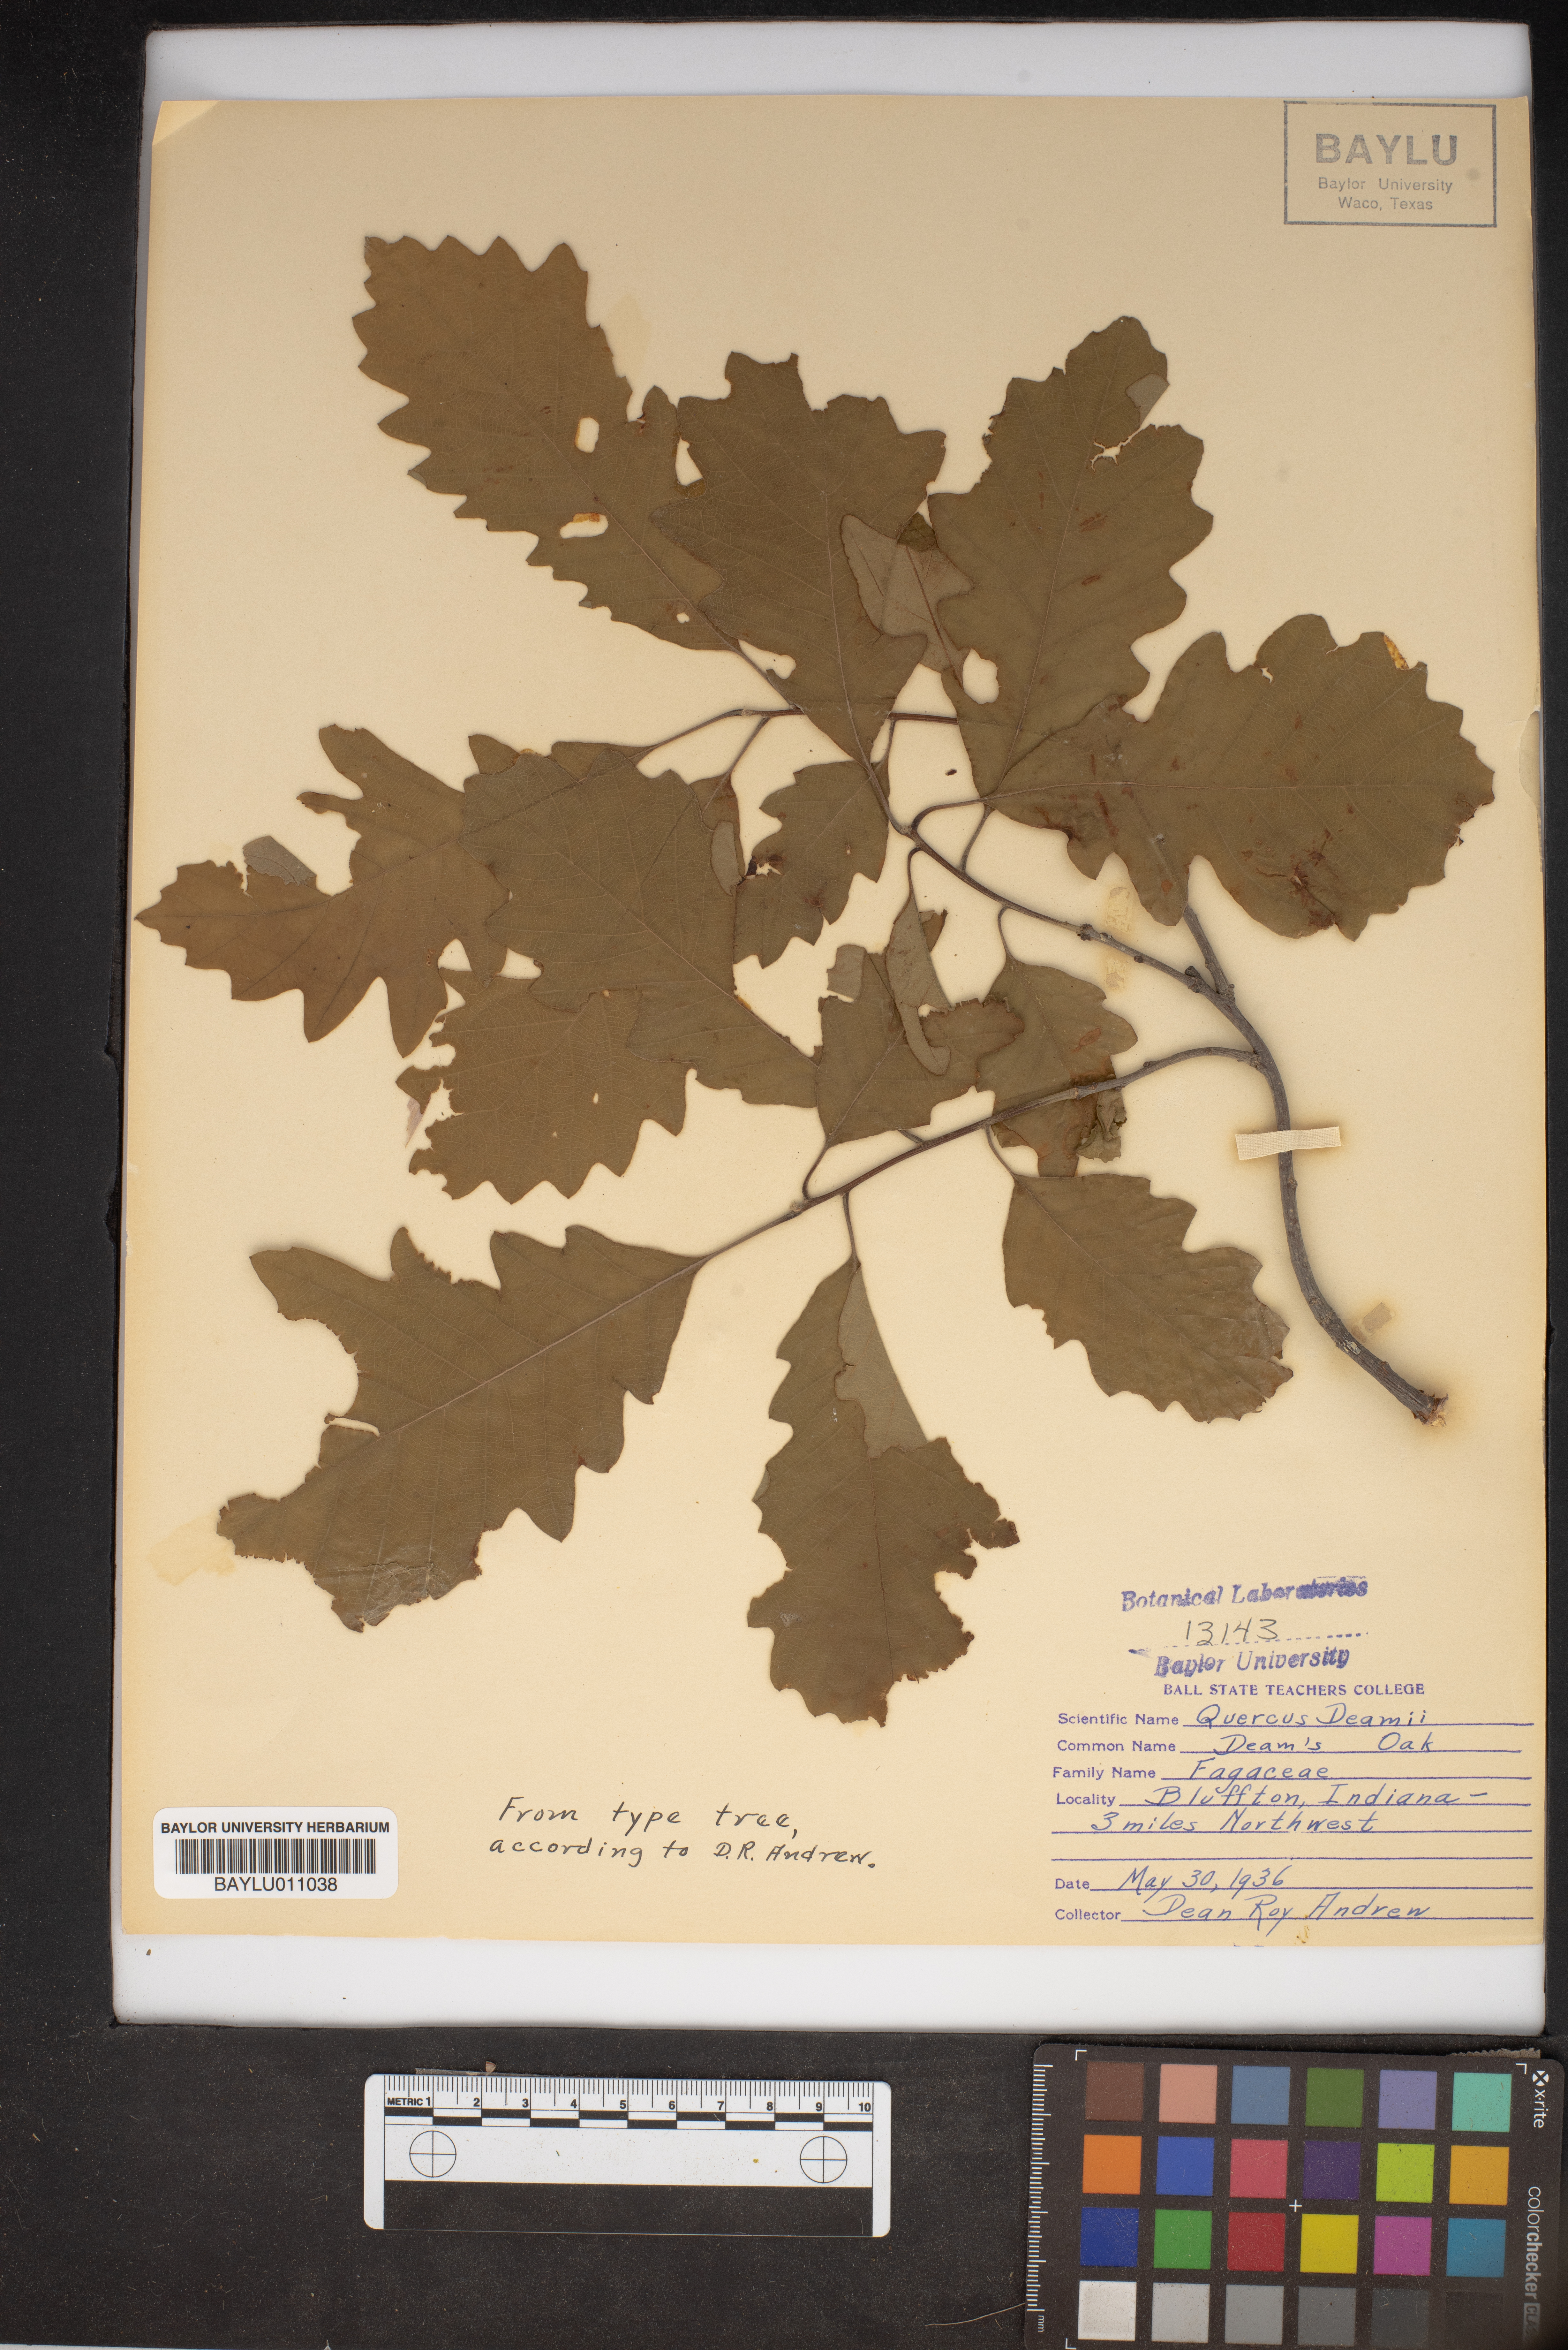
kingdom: Plantae
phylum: Tracheophyta
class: Magnoliopsida
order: Fagales
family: Fagaceae
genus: Quercus
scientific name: Quercus deamii
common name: Deam's oak
